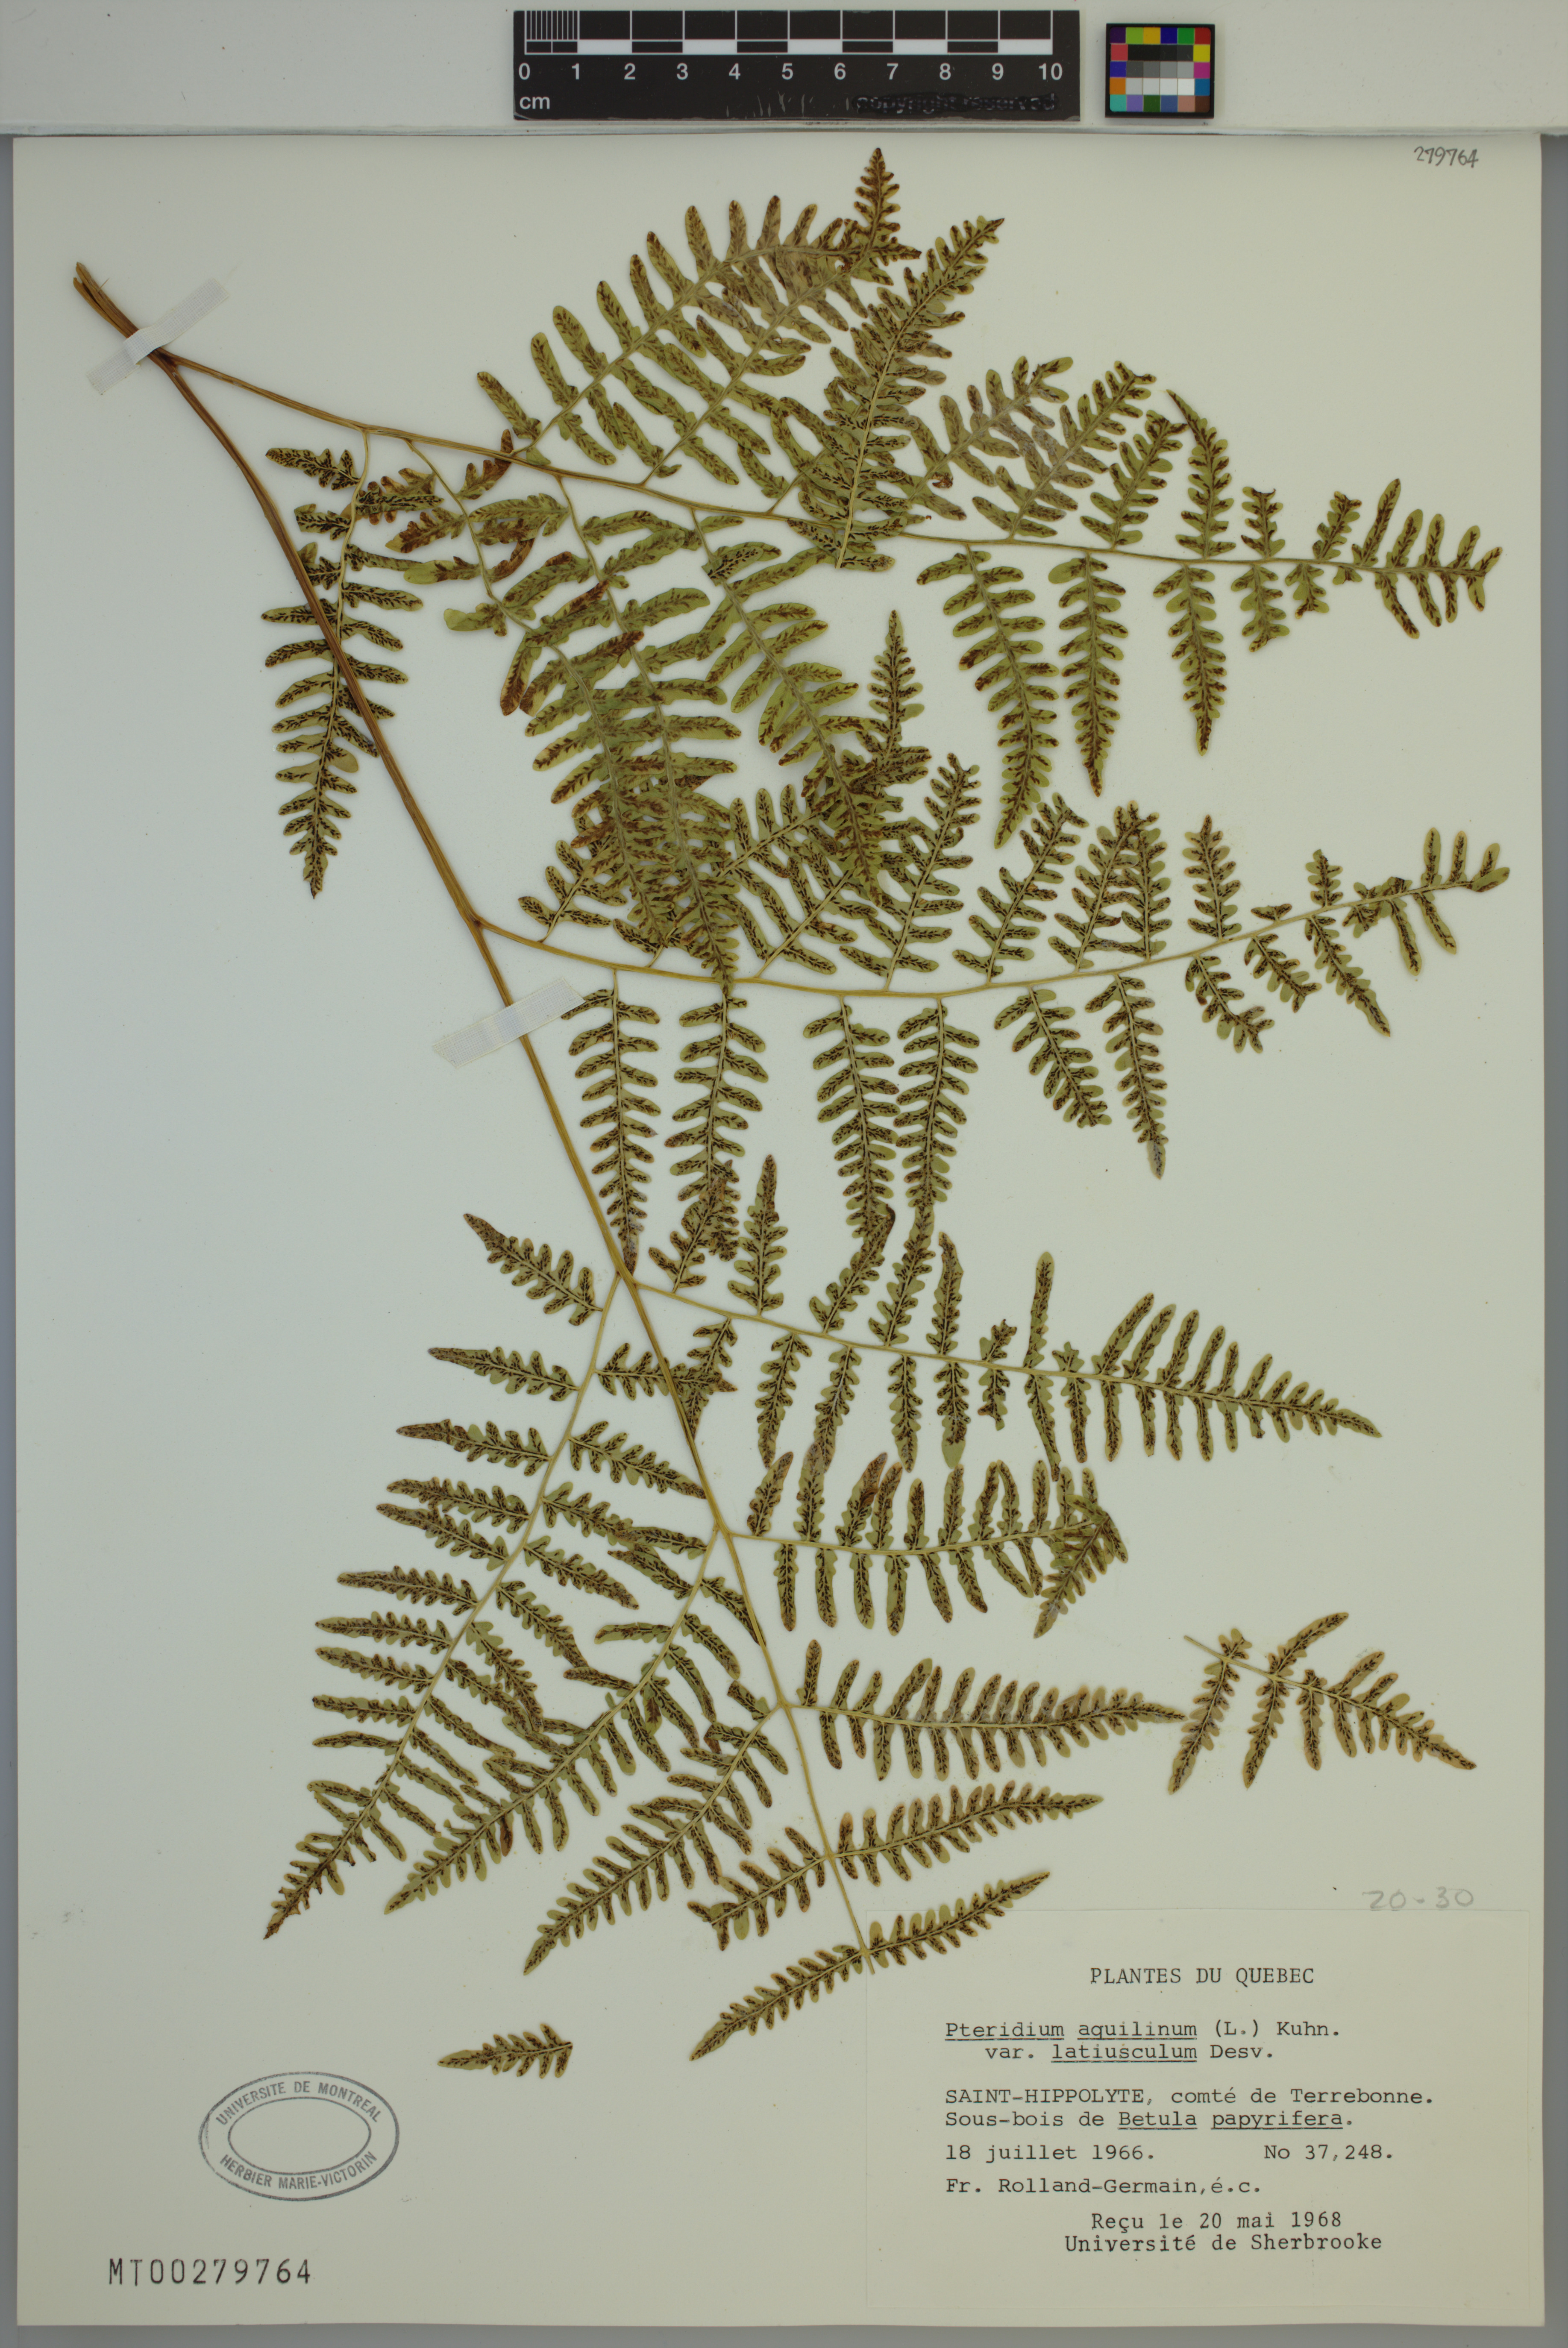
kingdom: Plantae
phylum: Tracheophyta
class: Polypodiopsida
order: Polypodiales
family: Dennstaedtiaceae
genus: Pteridium
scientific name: Pteridium aquilinum
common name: Bracken
